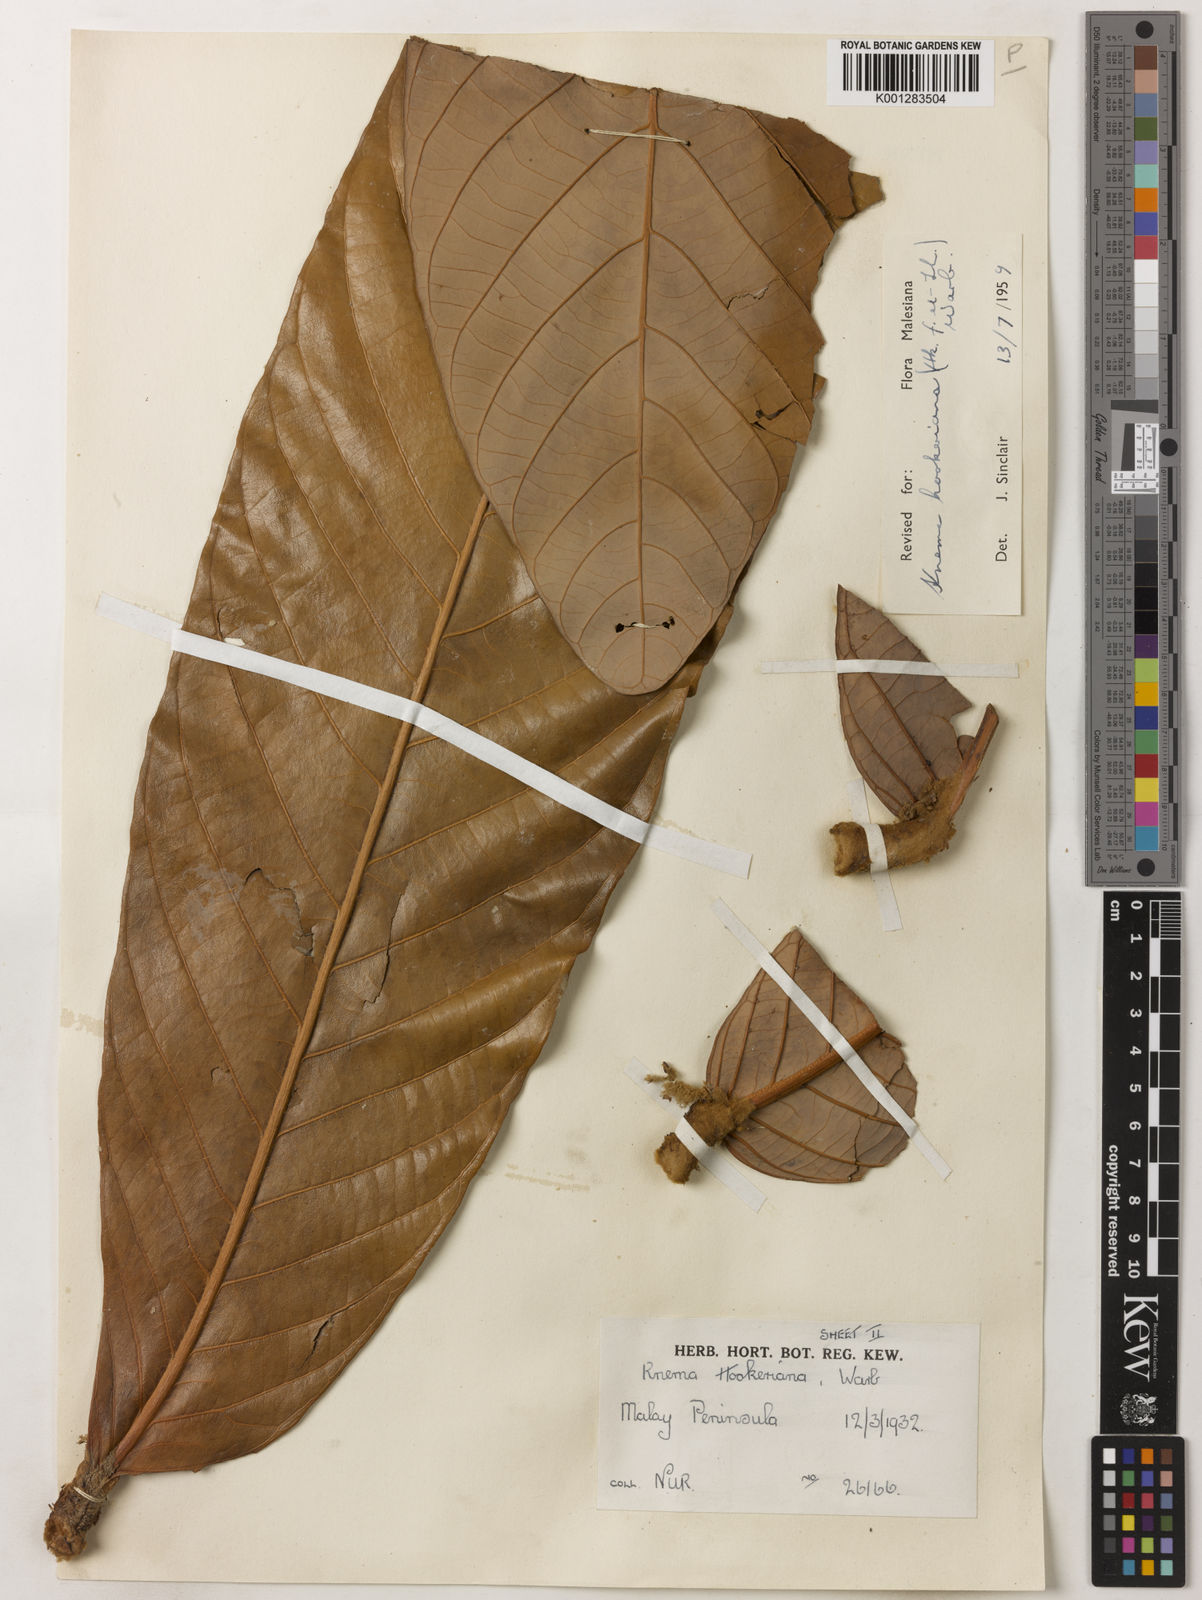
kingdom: Plantae
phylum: Tracheophyta
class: Magnoliopsida
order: Magnoliales
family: Myristicaceae
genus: Knema
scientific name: Knema hookeriana
